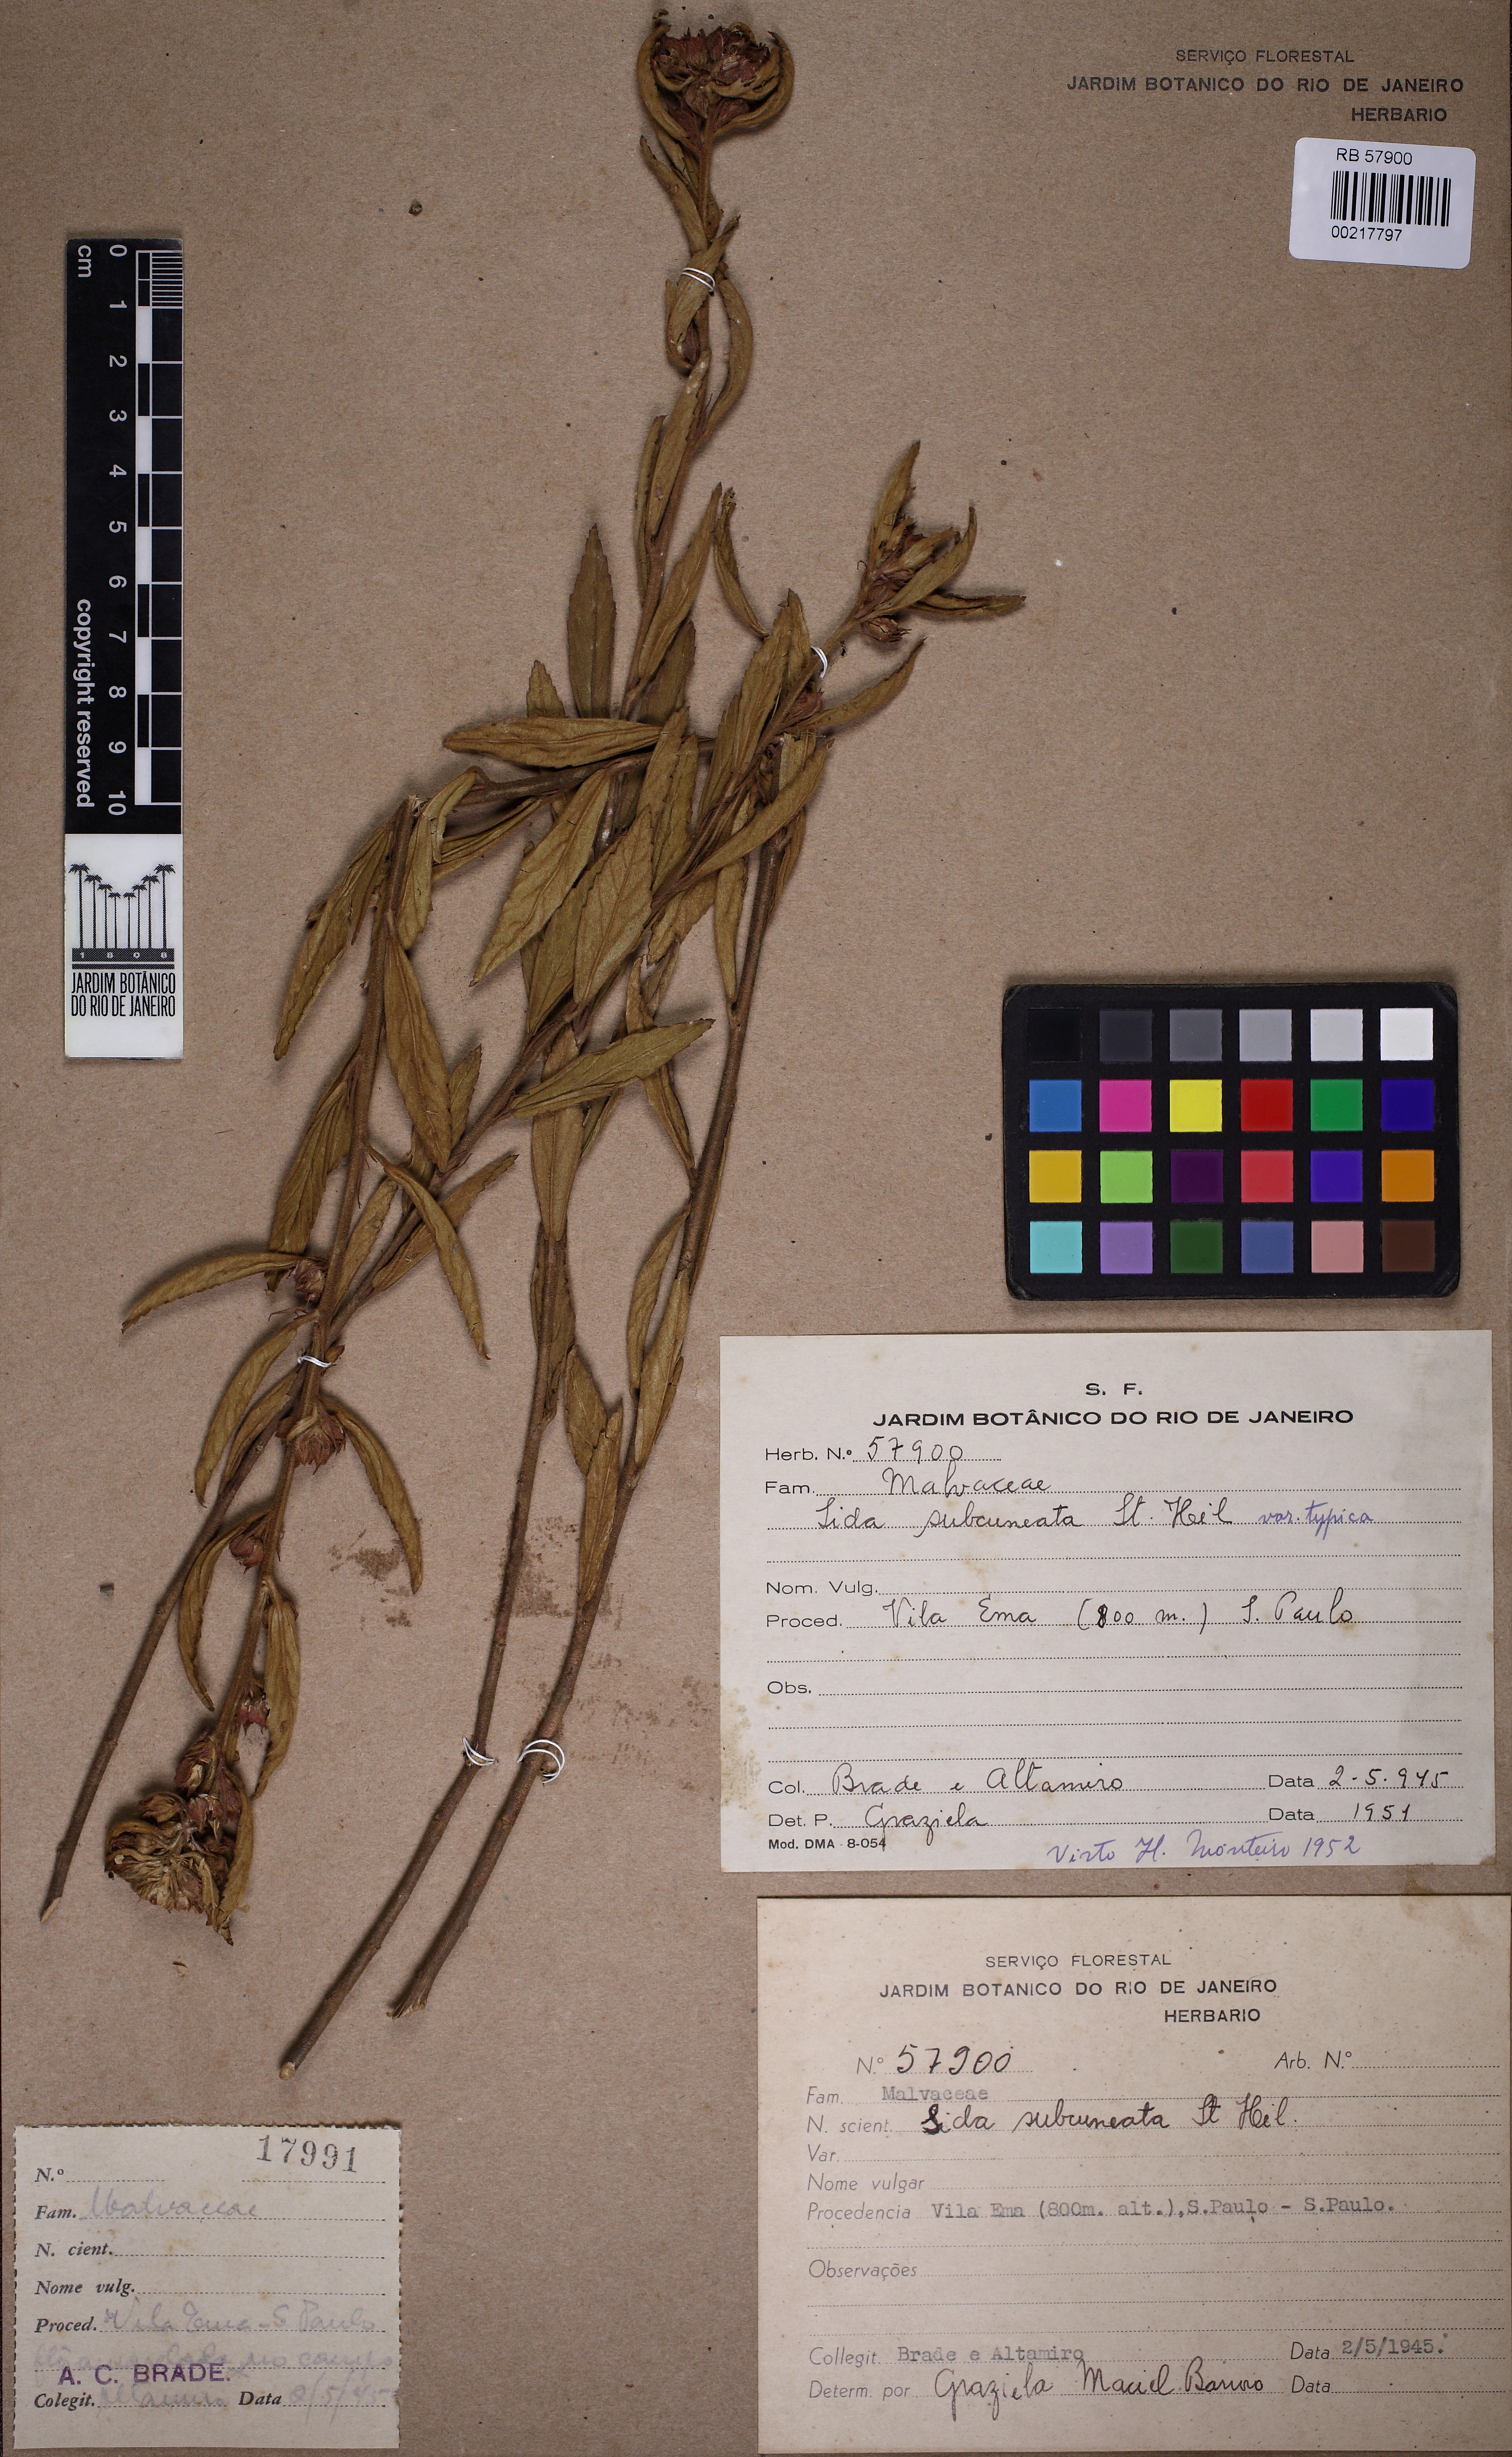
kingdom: Plantae
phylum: Tracheophyta
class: Magnoliopsida
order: Malvales
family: Malvaceae
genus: Sida
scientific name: Sida subcuneata
